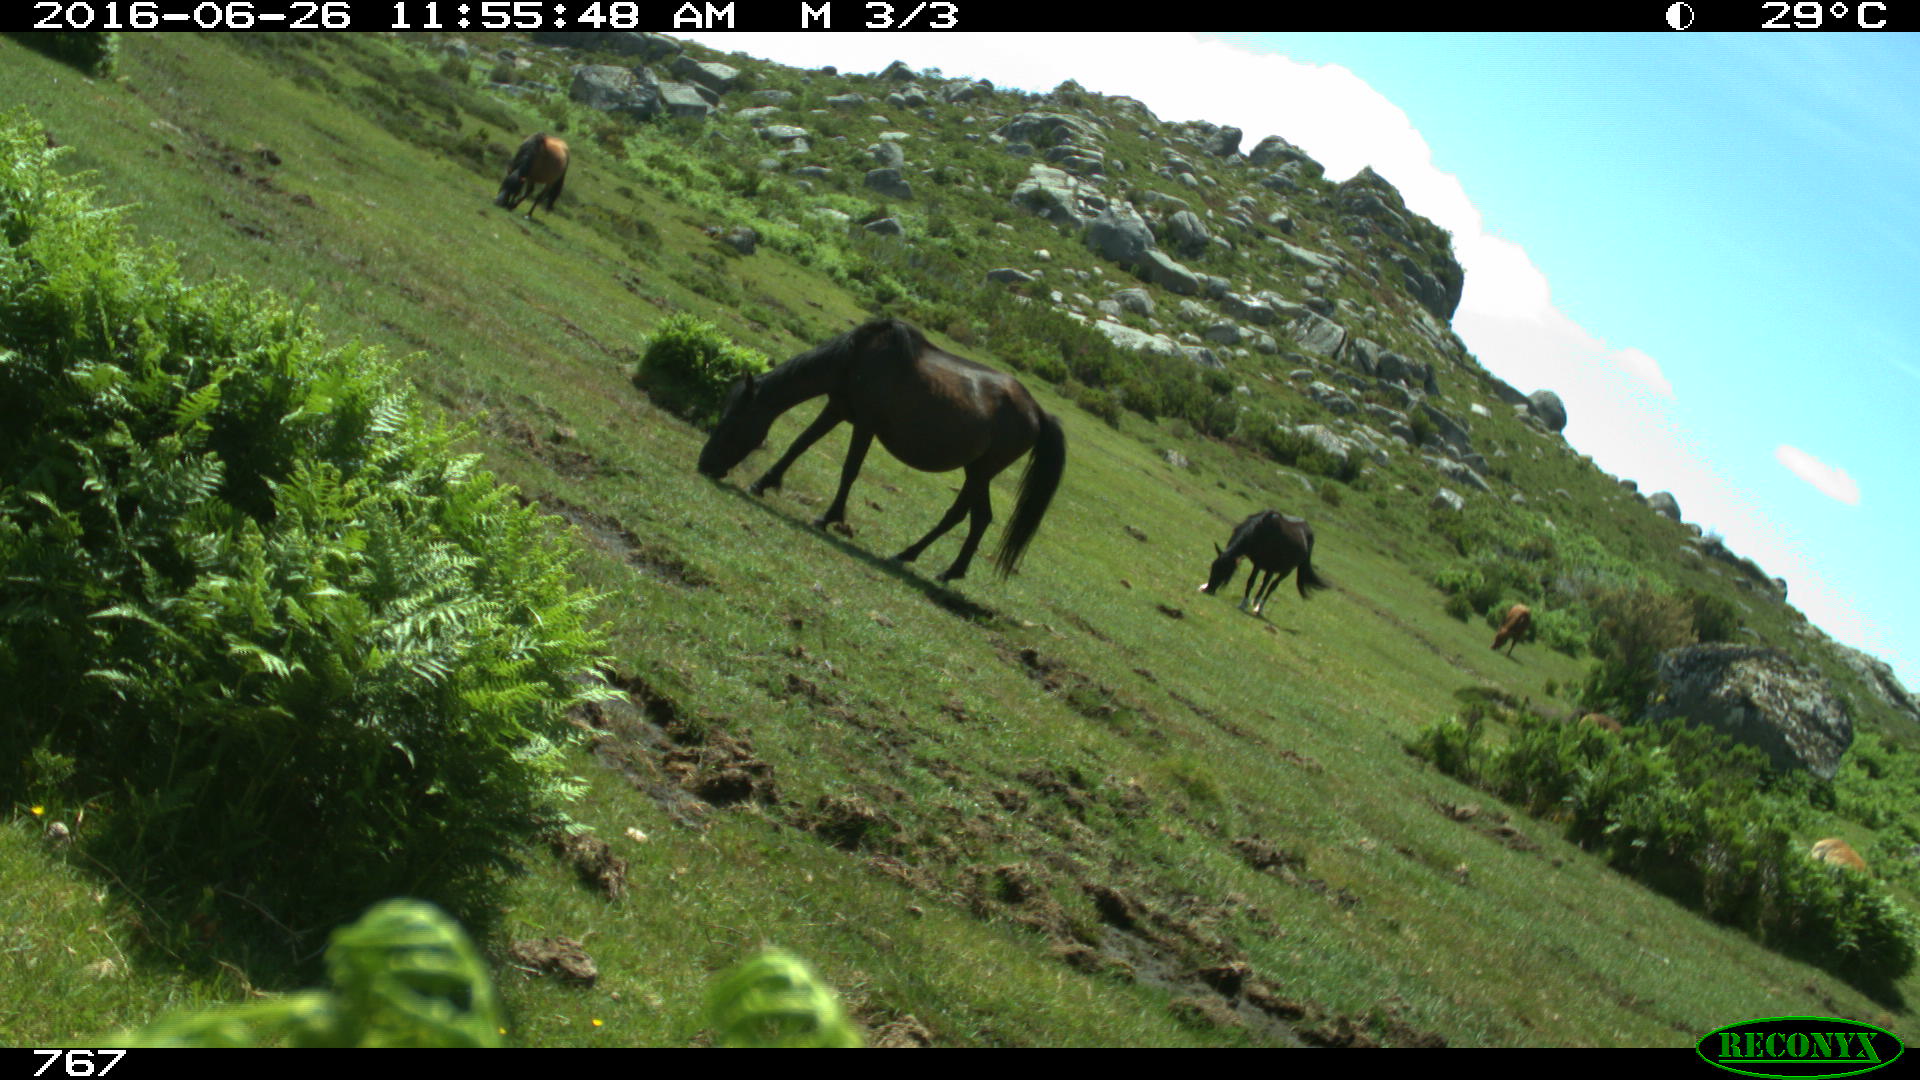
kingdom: Animalia
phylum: Chordata
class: Mammalia
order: Perissodactyla
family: Equidae
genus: Equus
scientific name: Equus caballus
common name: Horse
